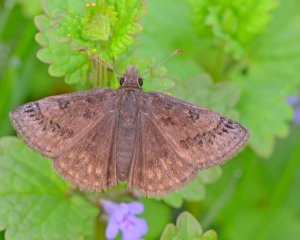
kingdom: Animalia
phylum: Arthropoda
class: Insecta
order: Lepidoptera
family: Hesperiidae
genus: Erynnis
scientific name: Erynnis brizo
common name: Sleepy Duskywing
